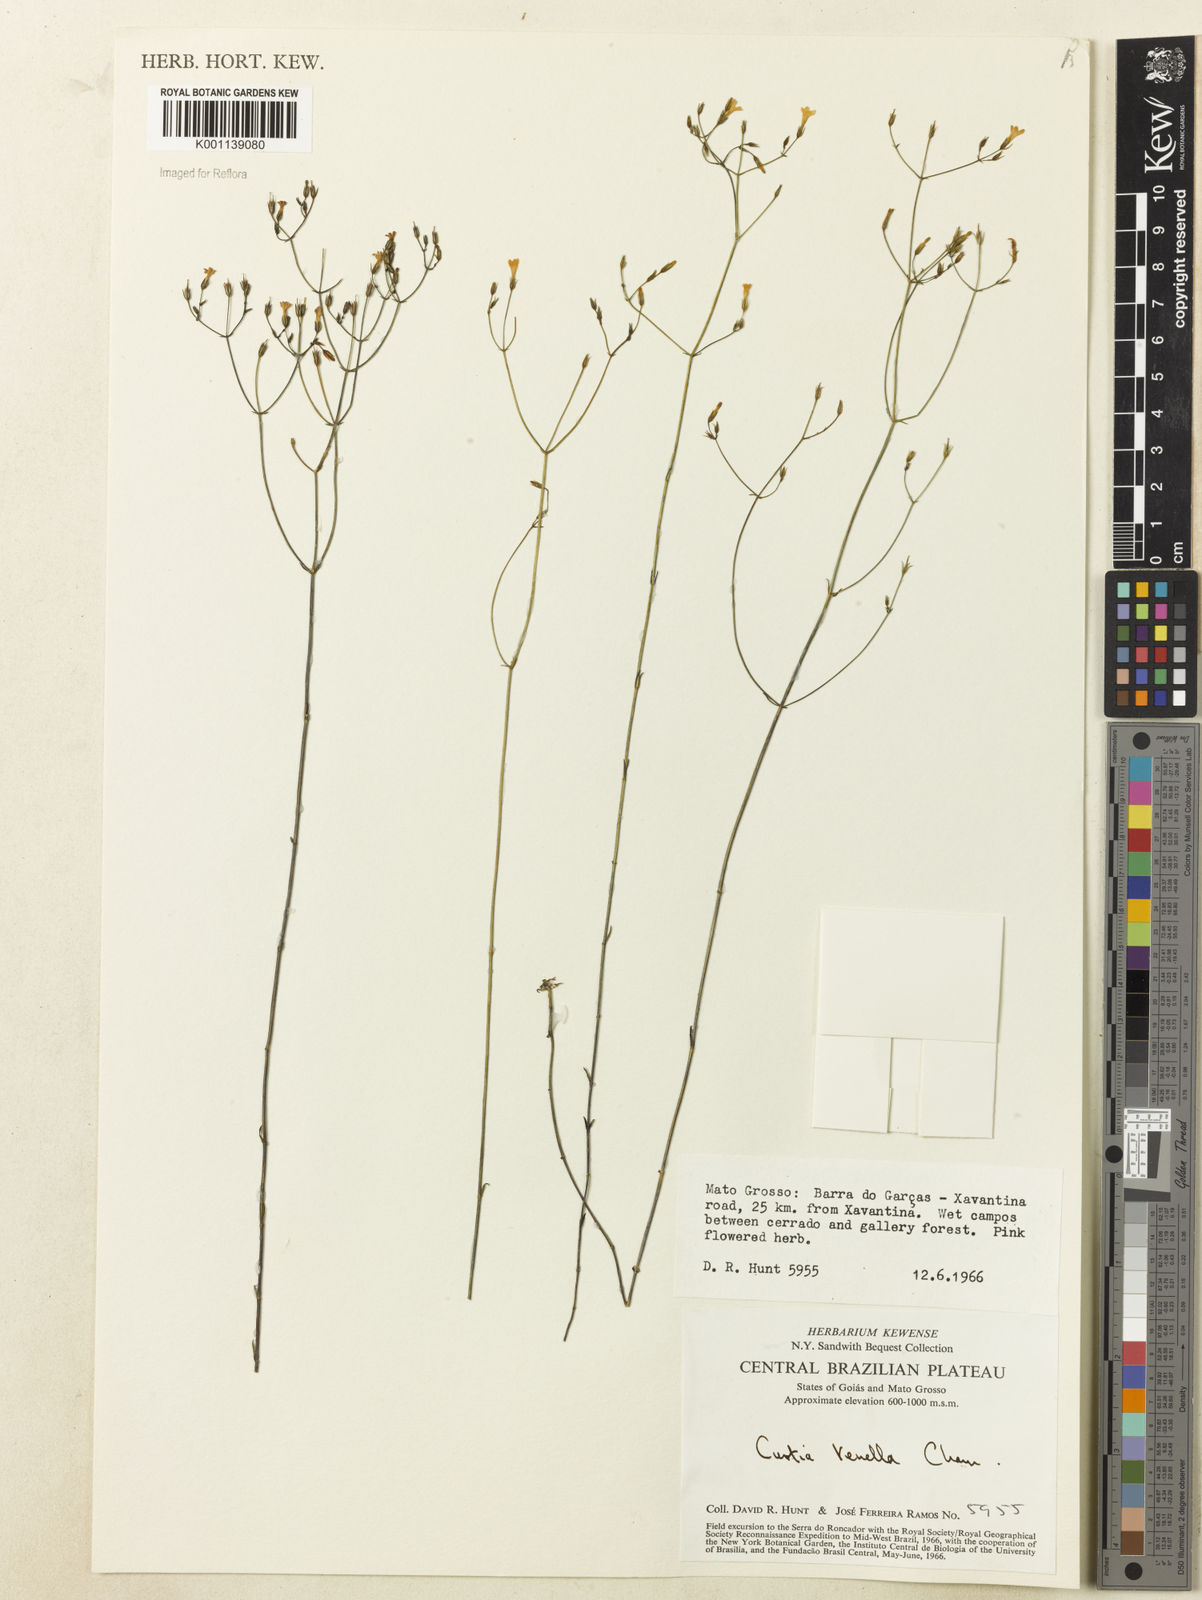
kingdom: Plantae
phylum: Tracheophyta
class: Magnoliopsida
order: Gentianales
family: Gentianaceae
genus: Curtia
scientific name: Curtia tenella
